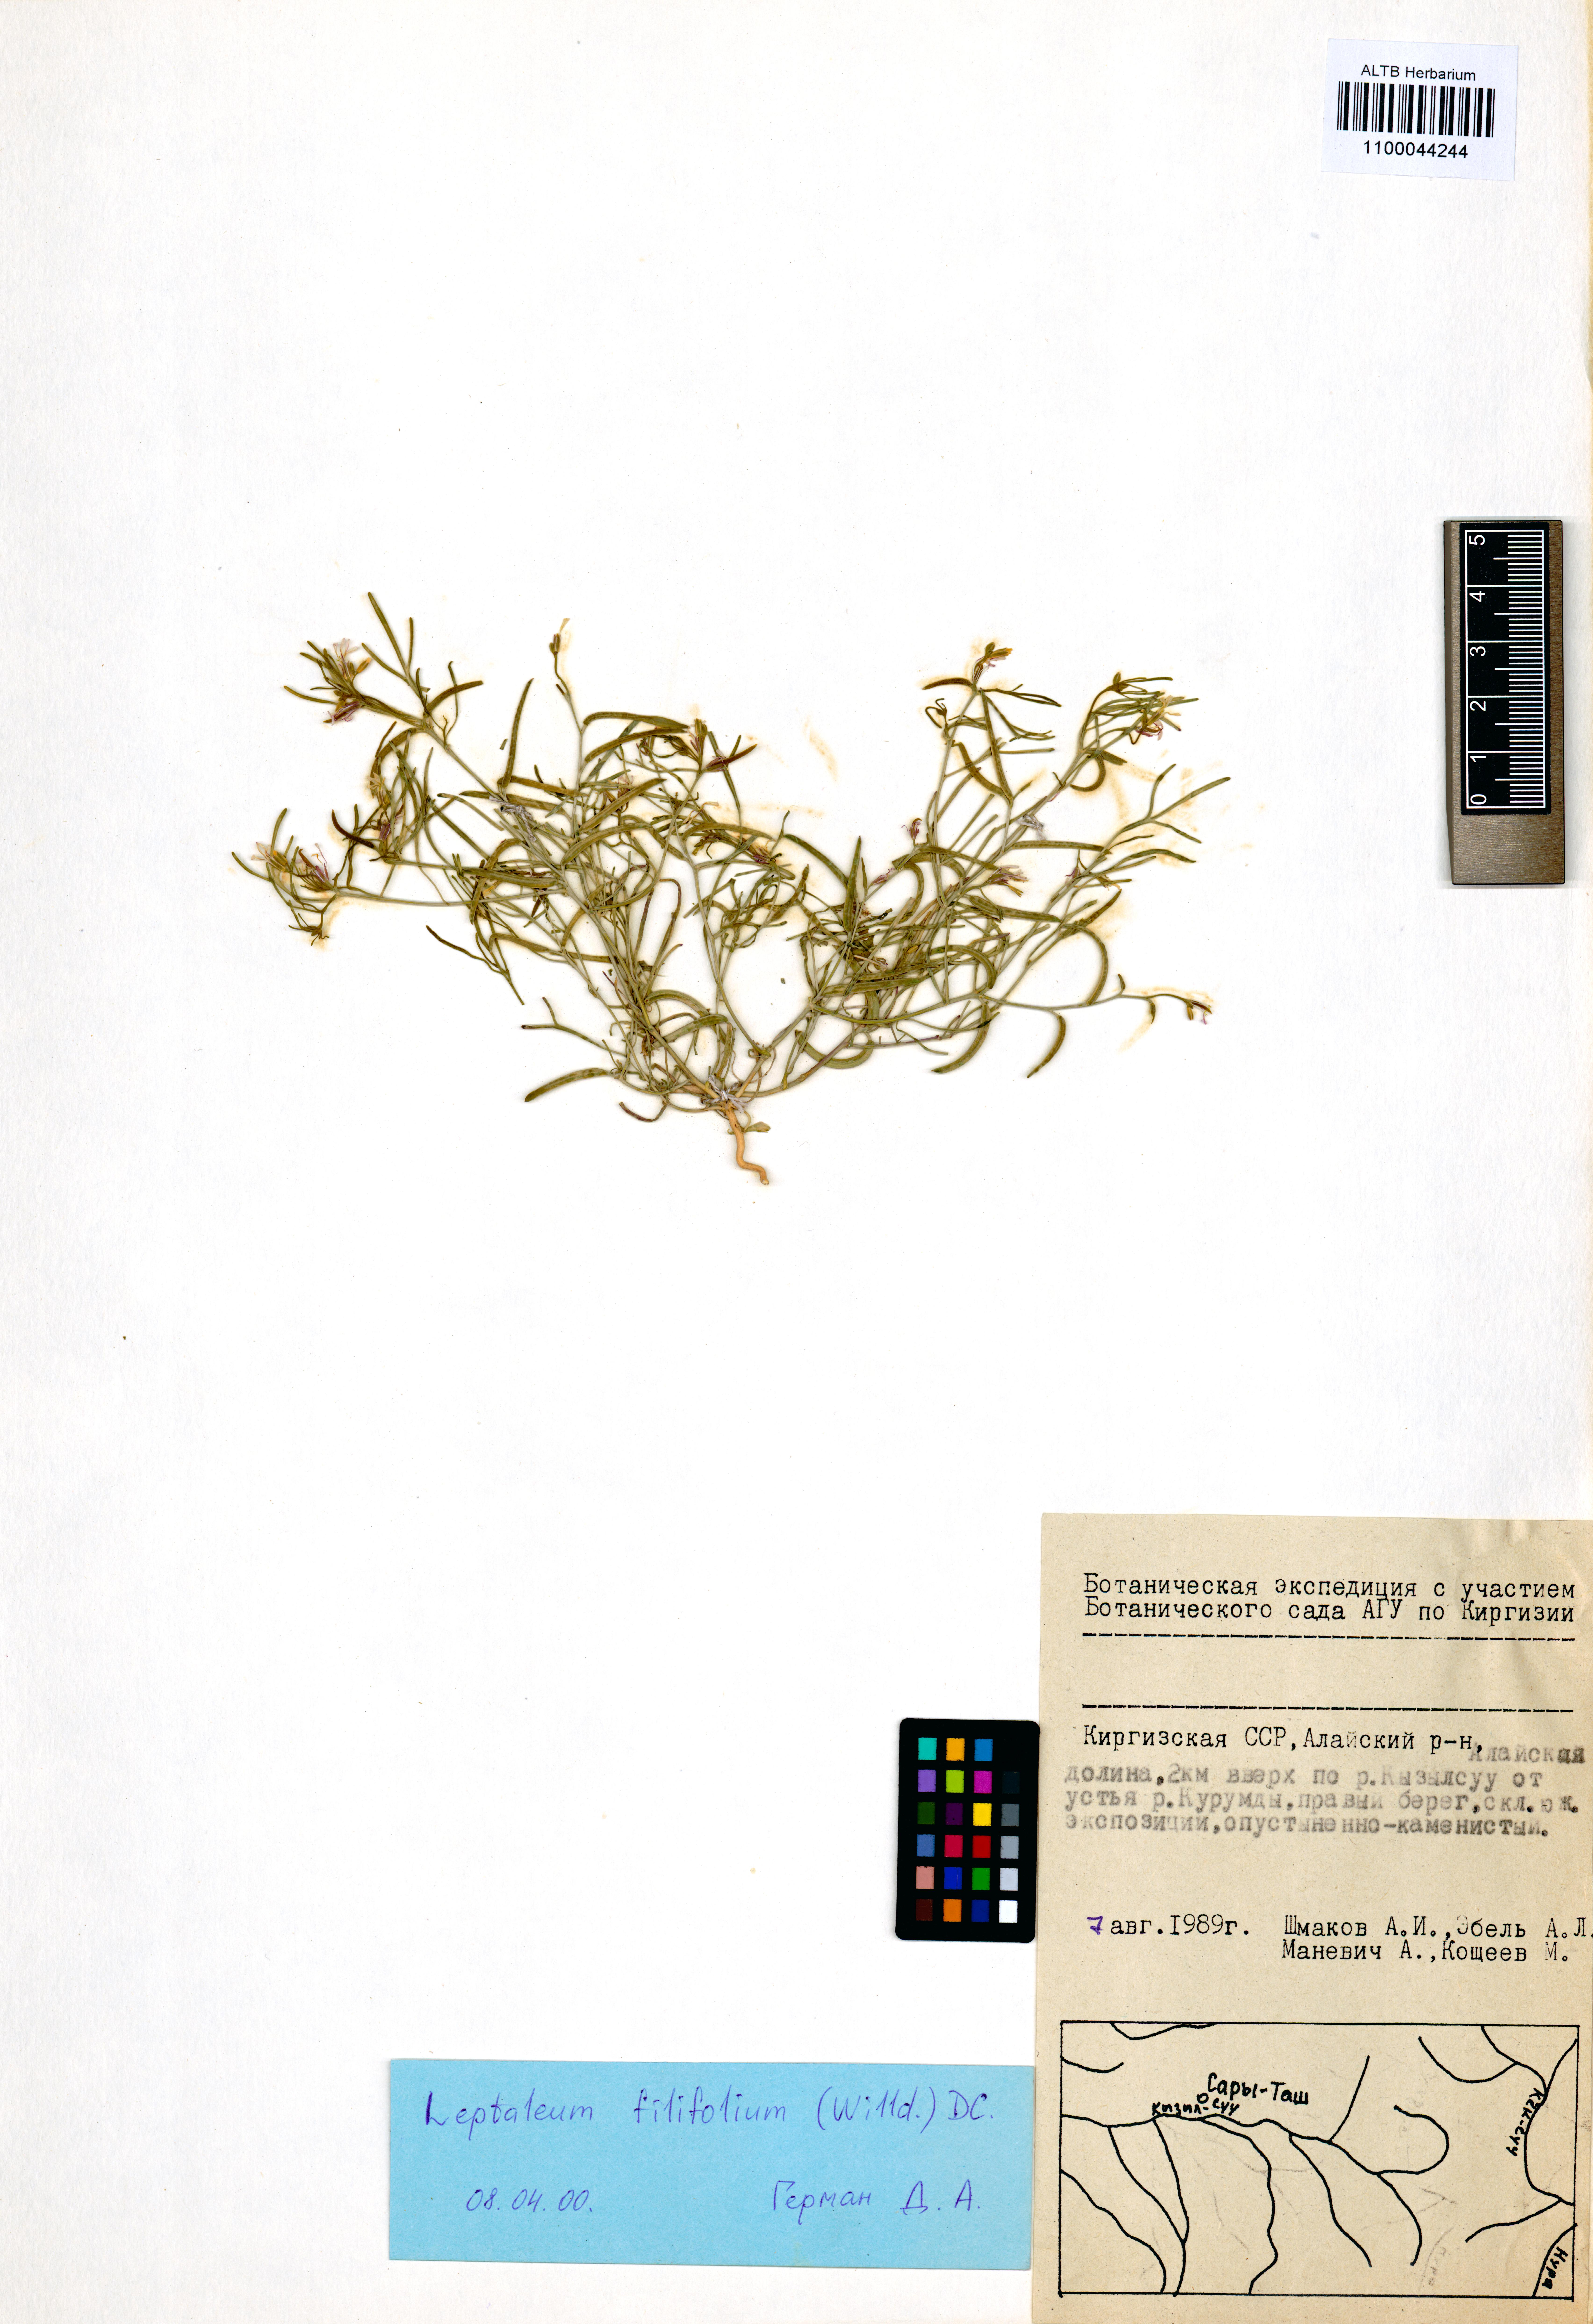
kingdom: Plantae
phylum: Tracheophyta
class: Magnoliopsida
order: Brassicales
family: Brassicaceae
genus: Leptaleum
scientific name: Leptaleum filifolium
